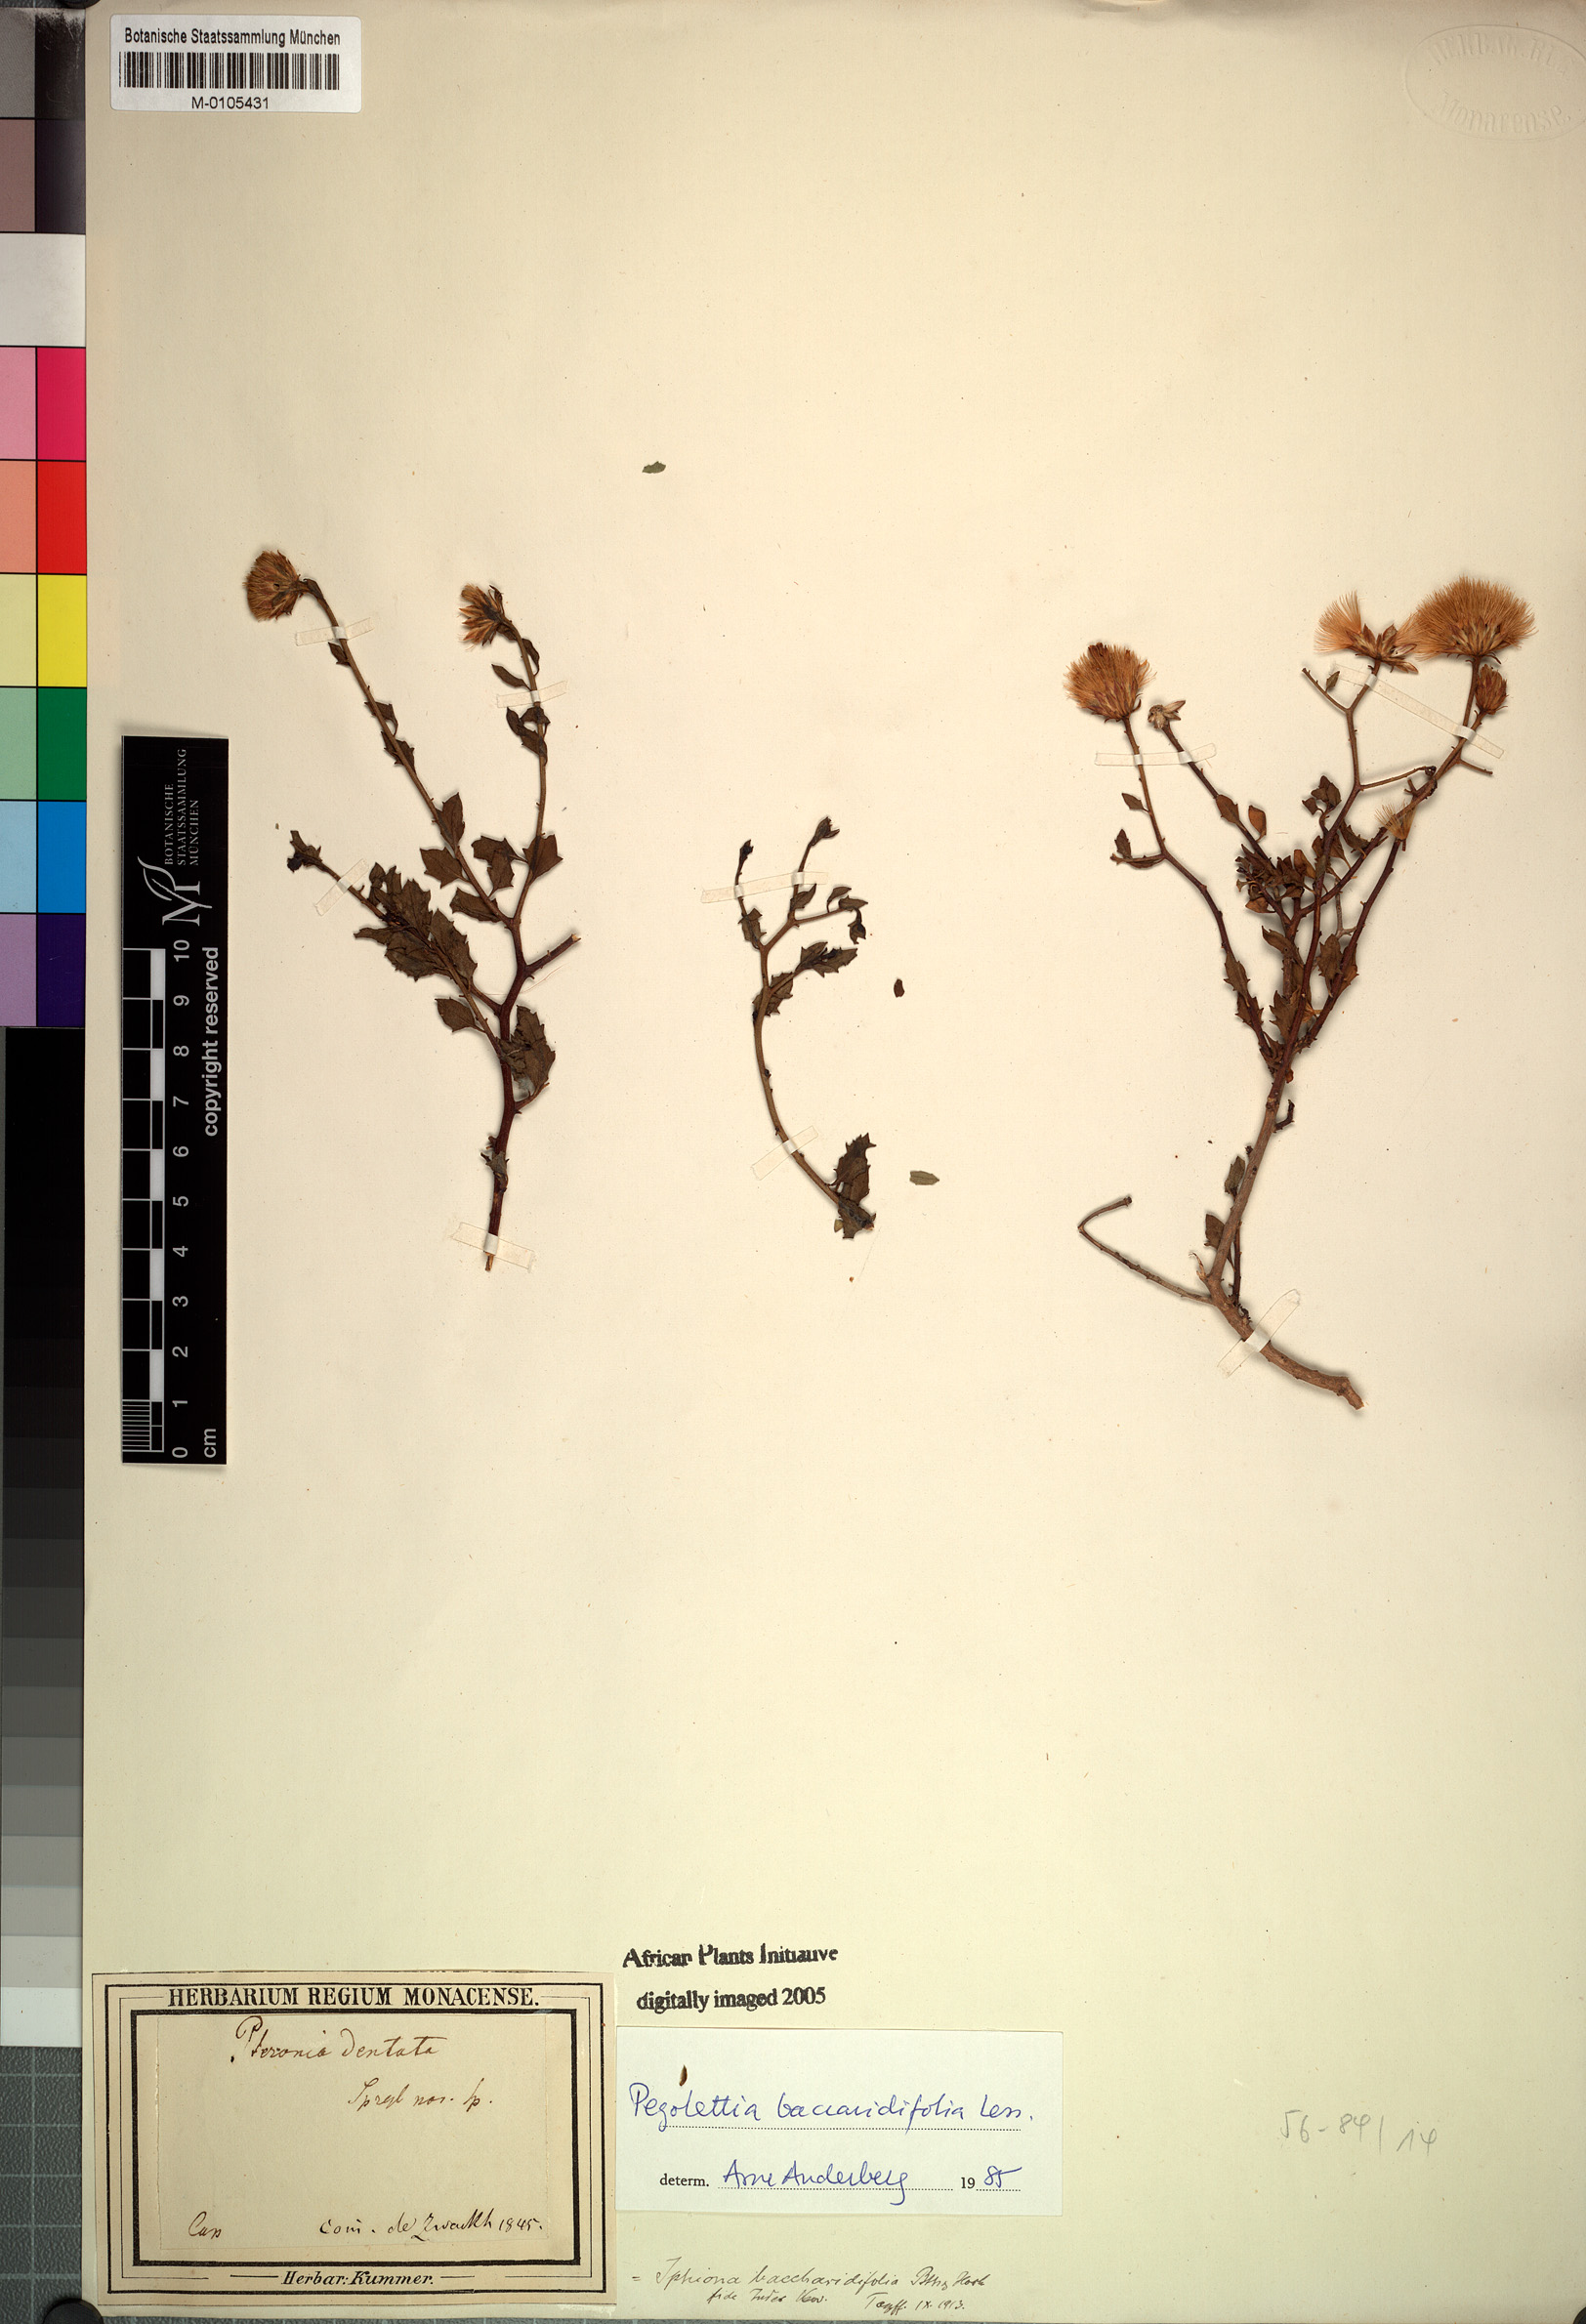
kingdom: Plantae
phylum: Tracheophyta
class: Magnoliopsida
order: Asterales
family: Asteraceae
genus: Pegolettia
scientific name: Pegolettia baccaridifolia
